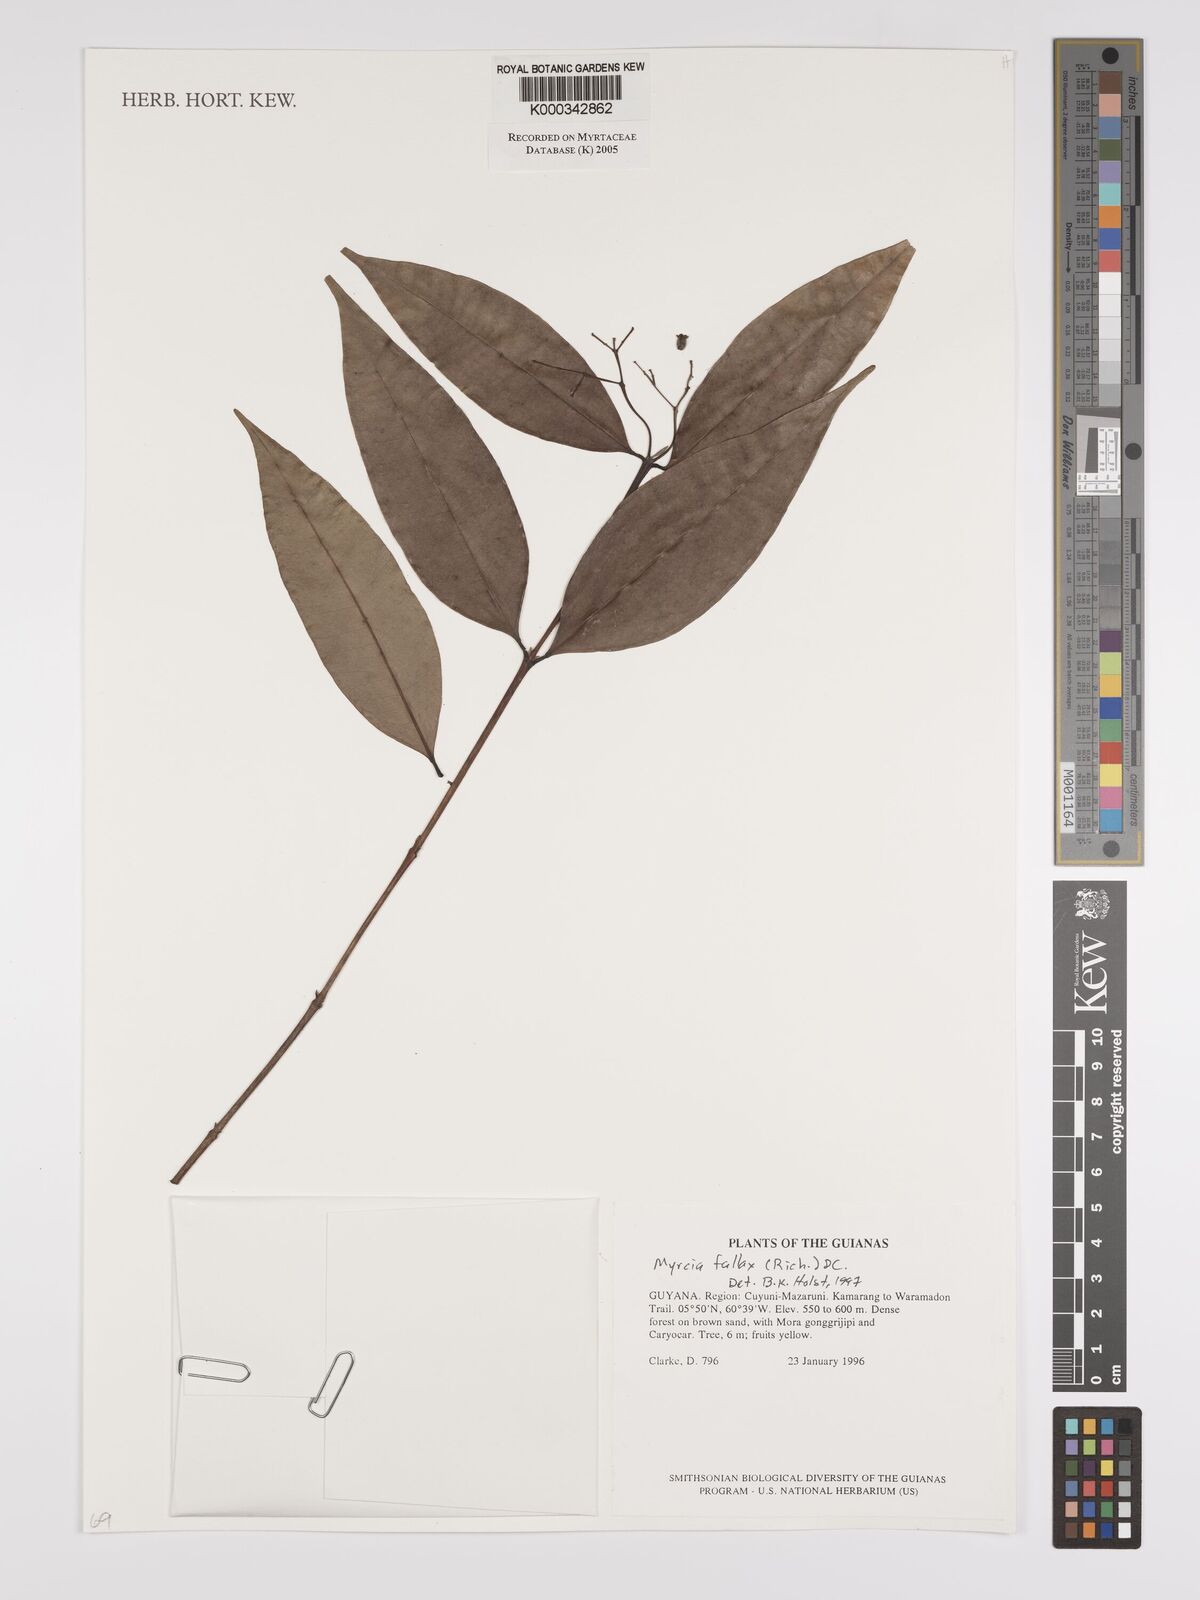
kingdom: Plantae
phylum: Tracheophyta
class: Magnoliopsida
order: Myrtales
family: Myrtaceae
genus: Myrcia
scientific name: Myrcia splendens
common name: Surinam cherry
